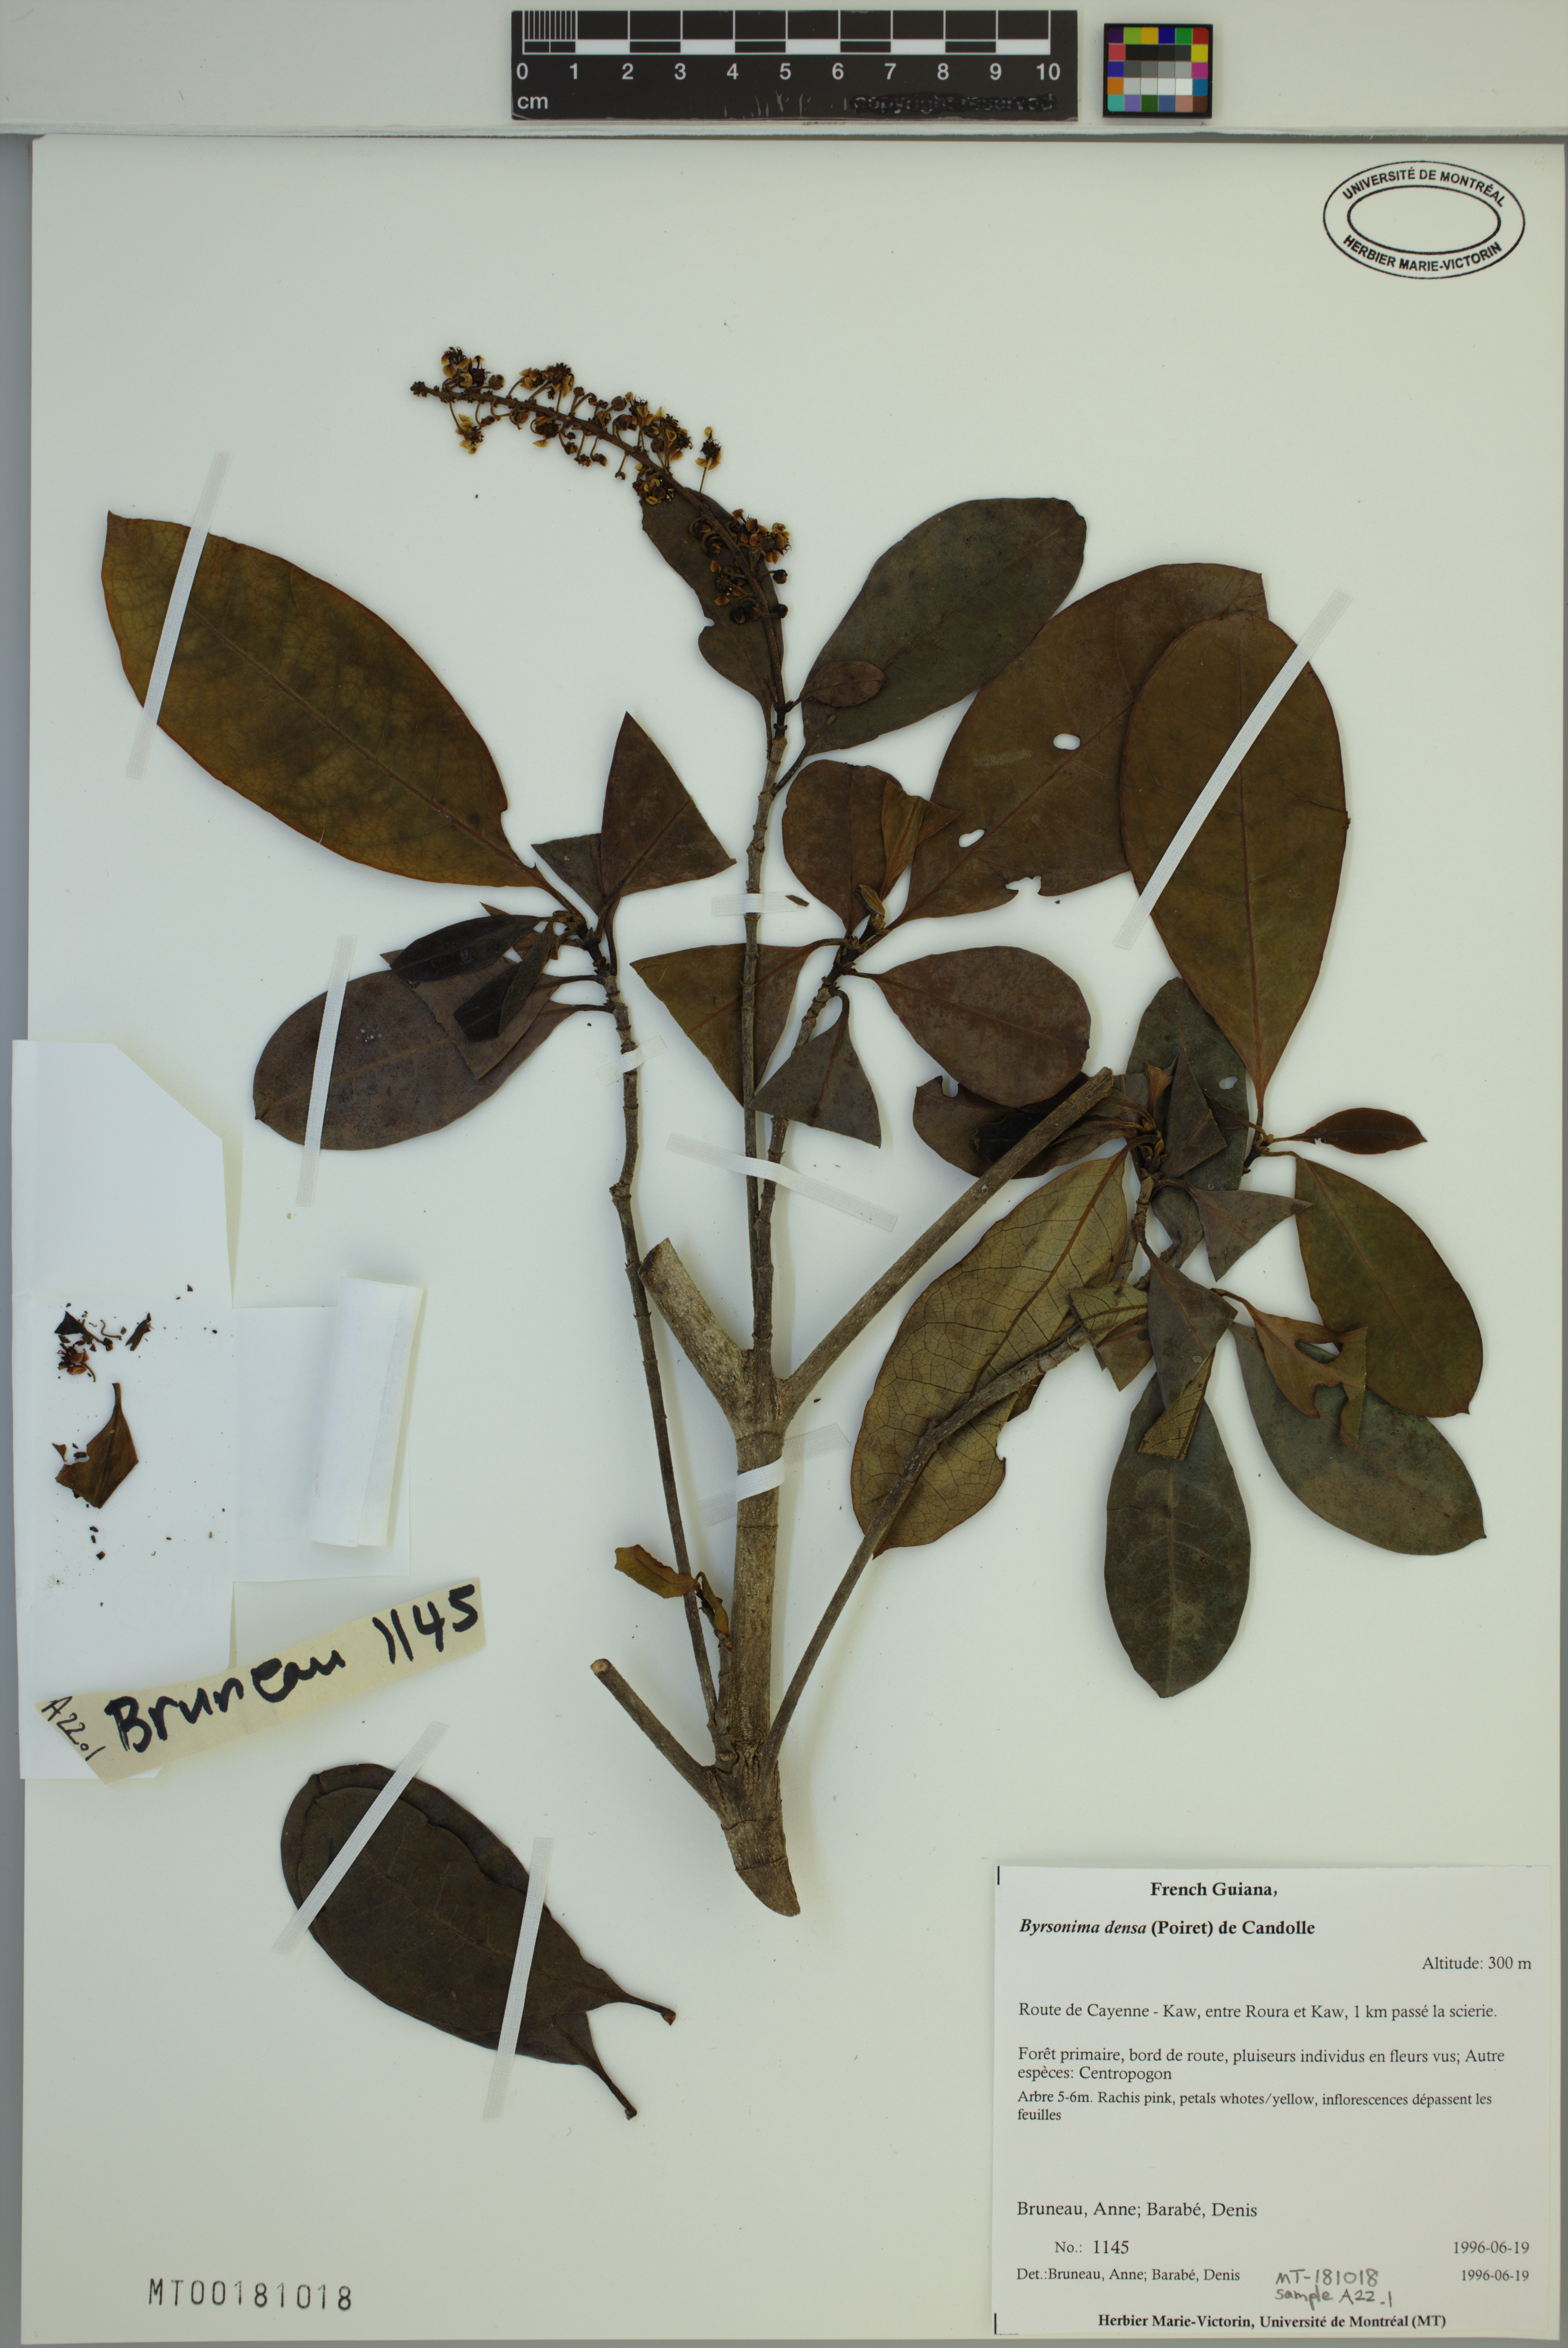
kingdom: Plantae
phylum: Tracheophyta
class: Magnoliopsida
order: Malpighiales
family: Malpighiaceae
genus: Byrsonima
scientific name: Byrsonima densa
